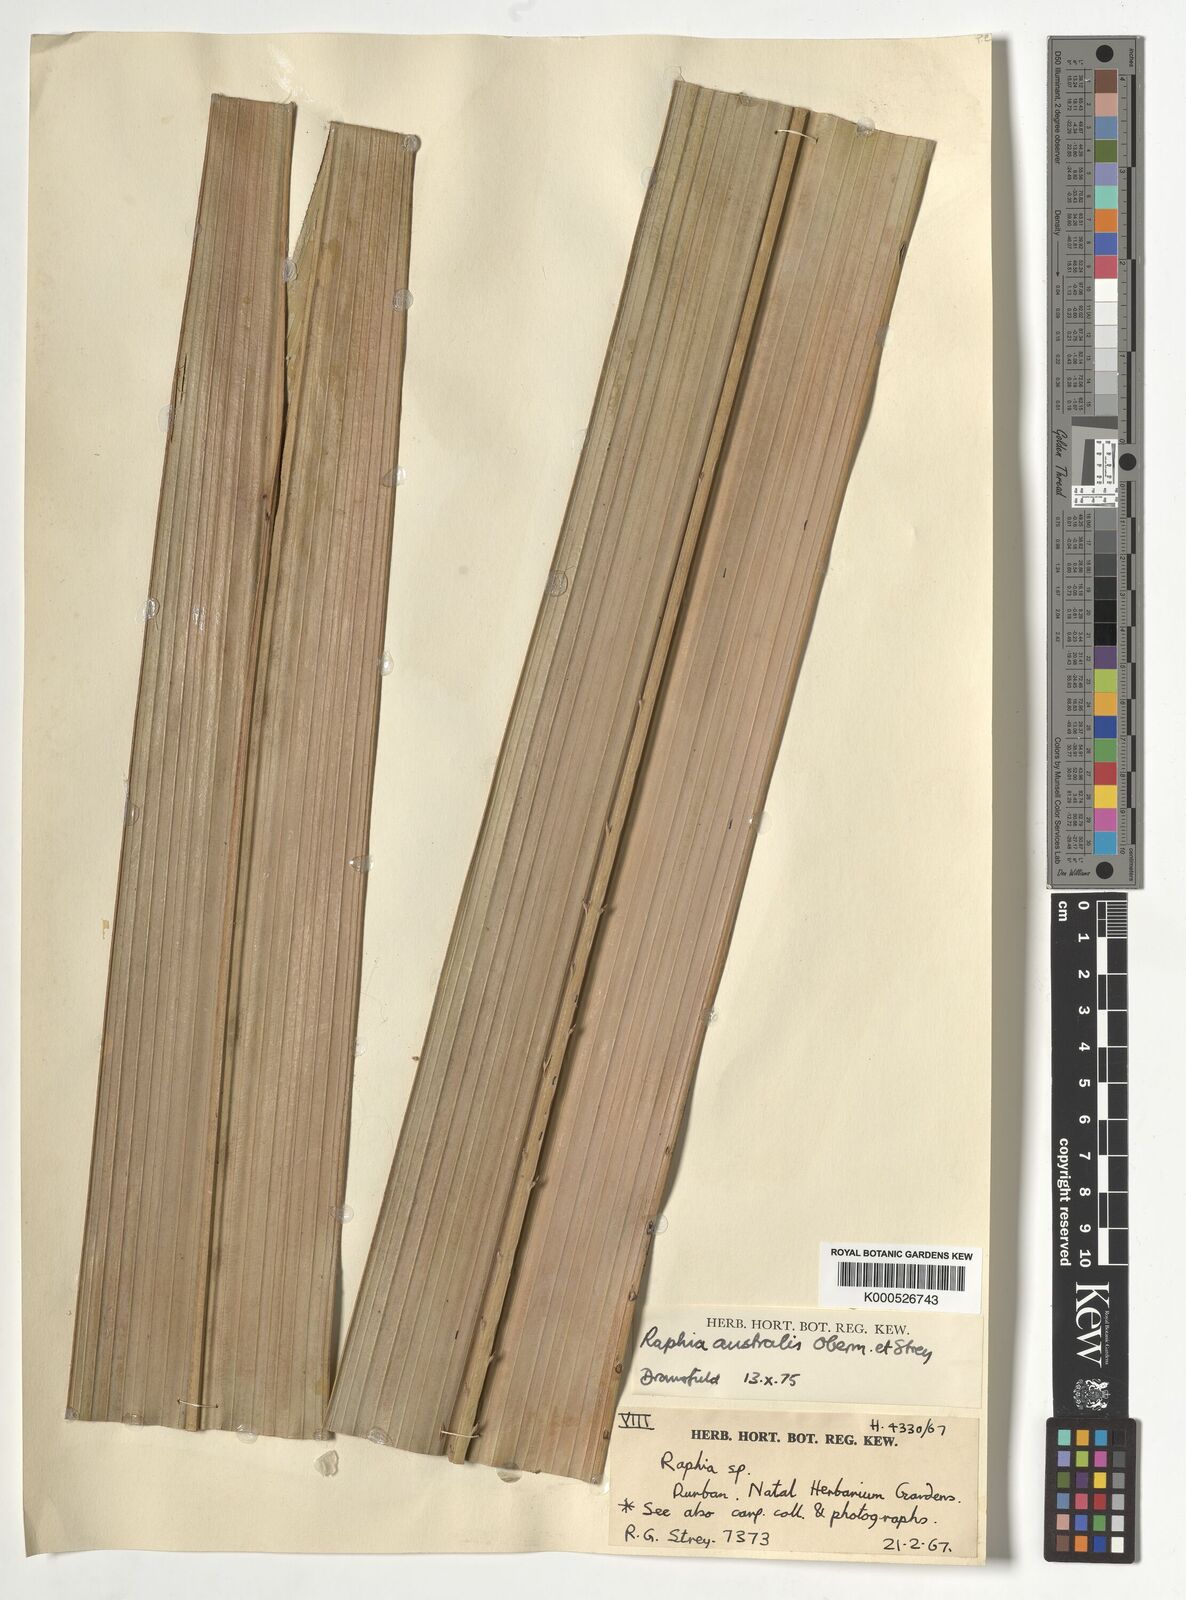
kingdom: Plantae
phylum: Tracheophyta
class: Liliopsida
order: Arecales
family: Arecaceae
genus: Raphia
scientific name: Raphia australis
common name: Giant palm
